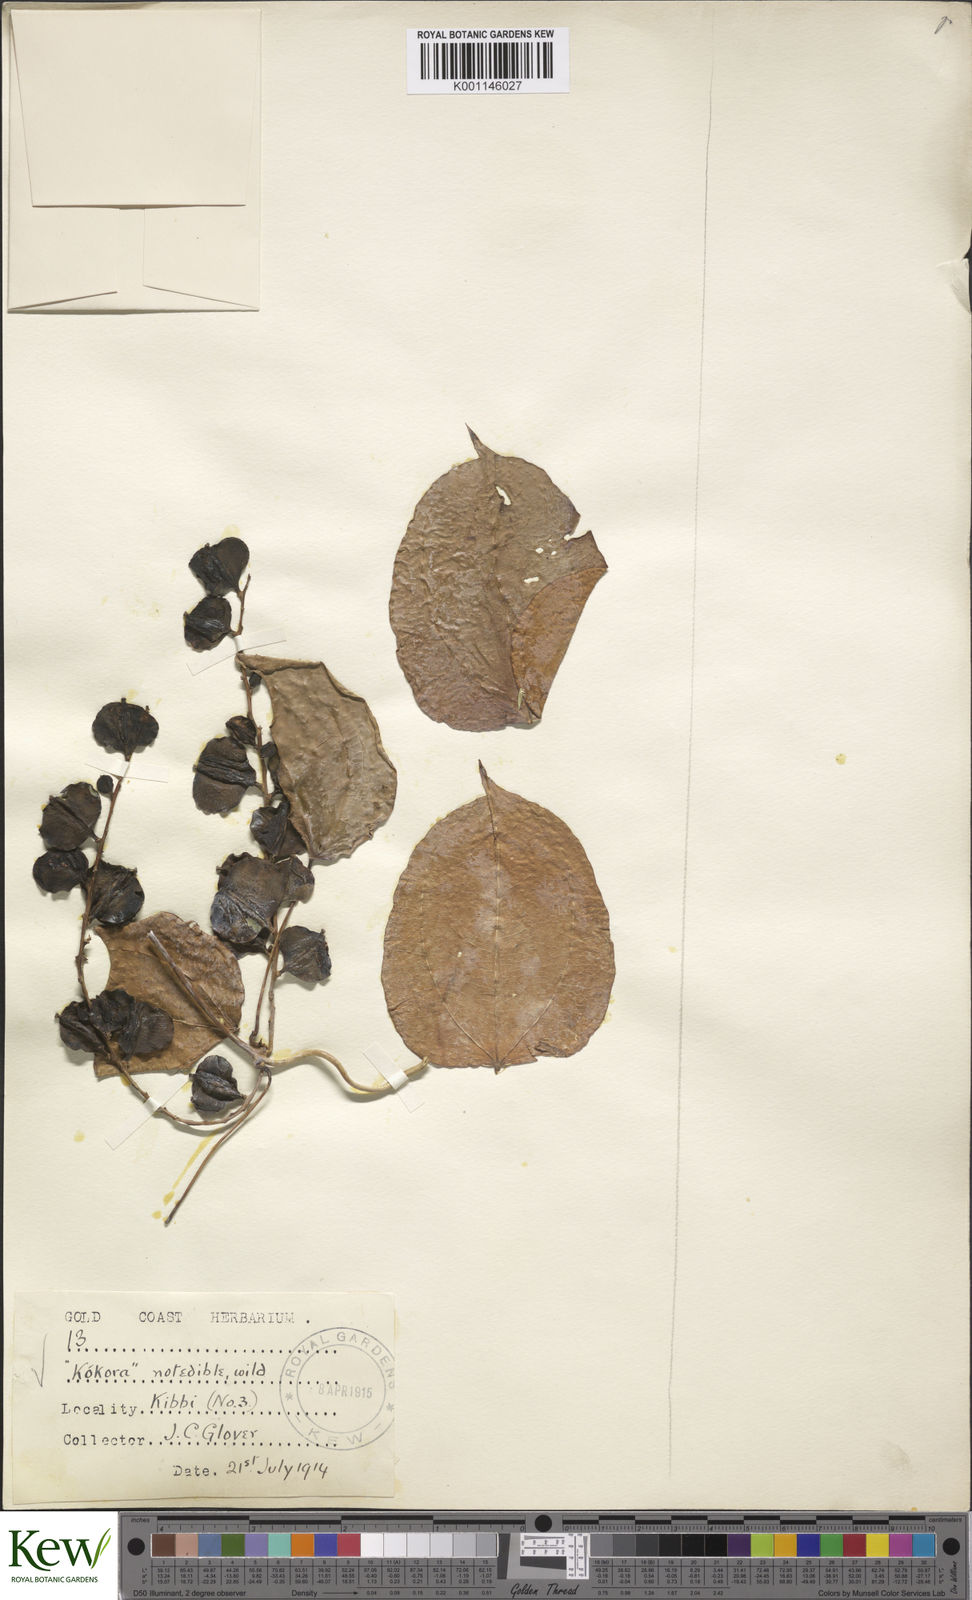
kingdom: Plantae
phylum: Tracheophyta
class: Liliopsida
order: Dioscoreales
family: Dioscoreaceae
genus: Dioscorea
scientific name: Dioscorea minutiflora
